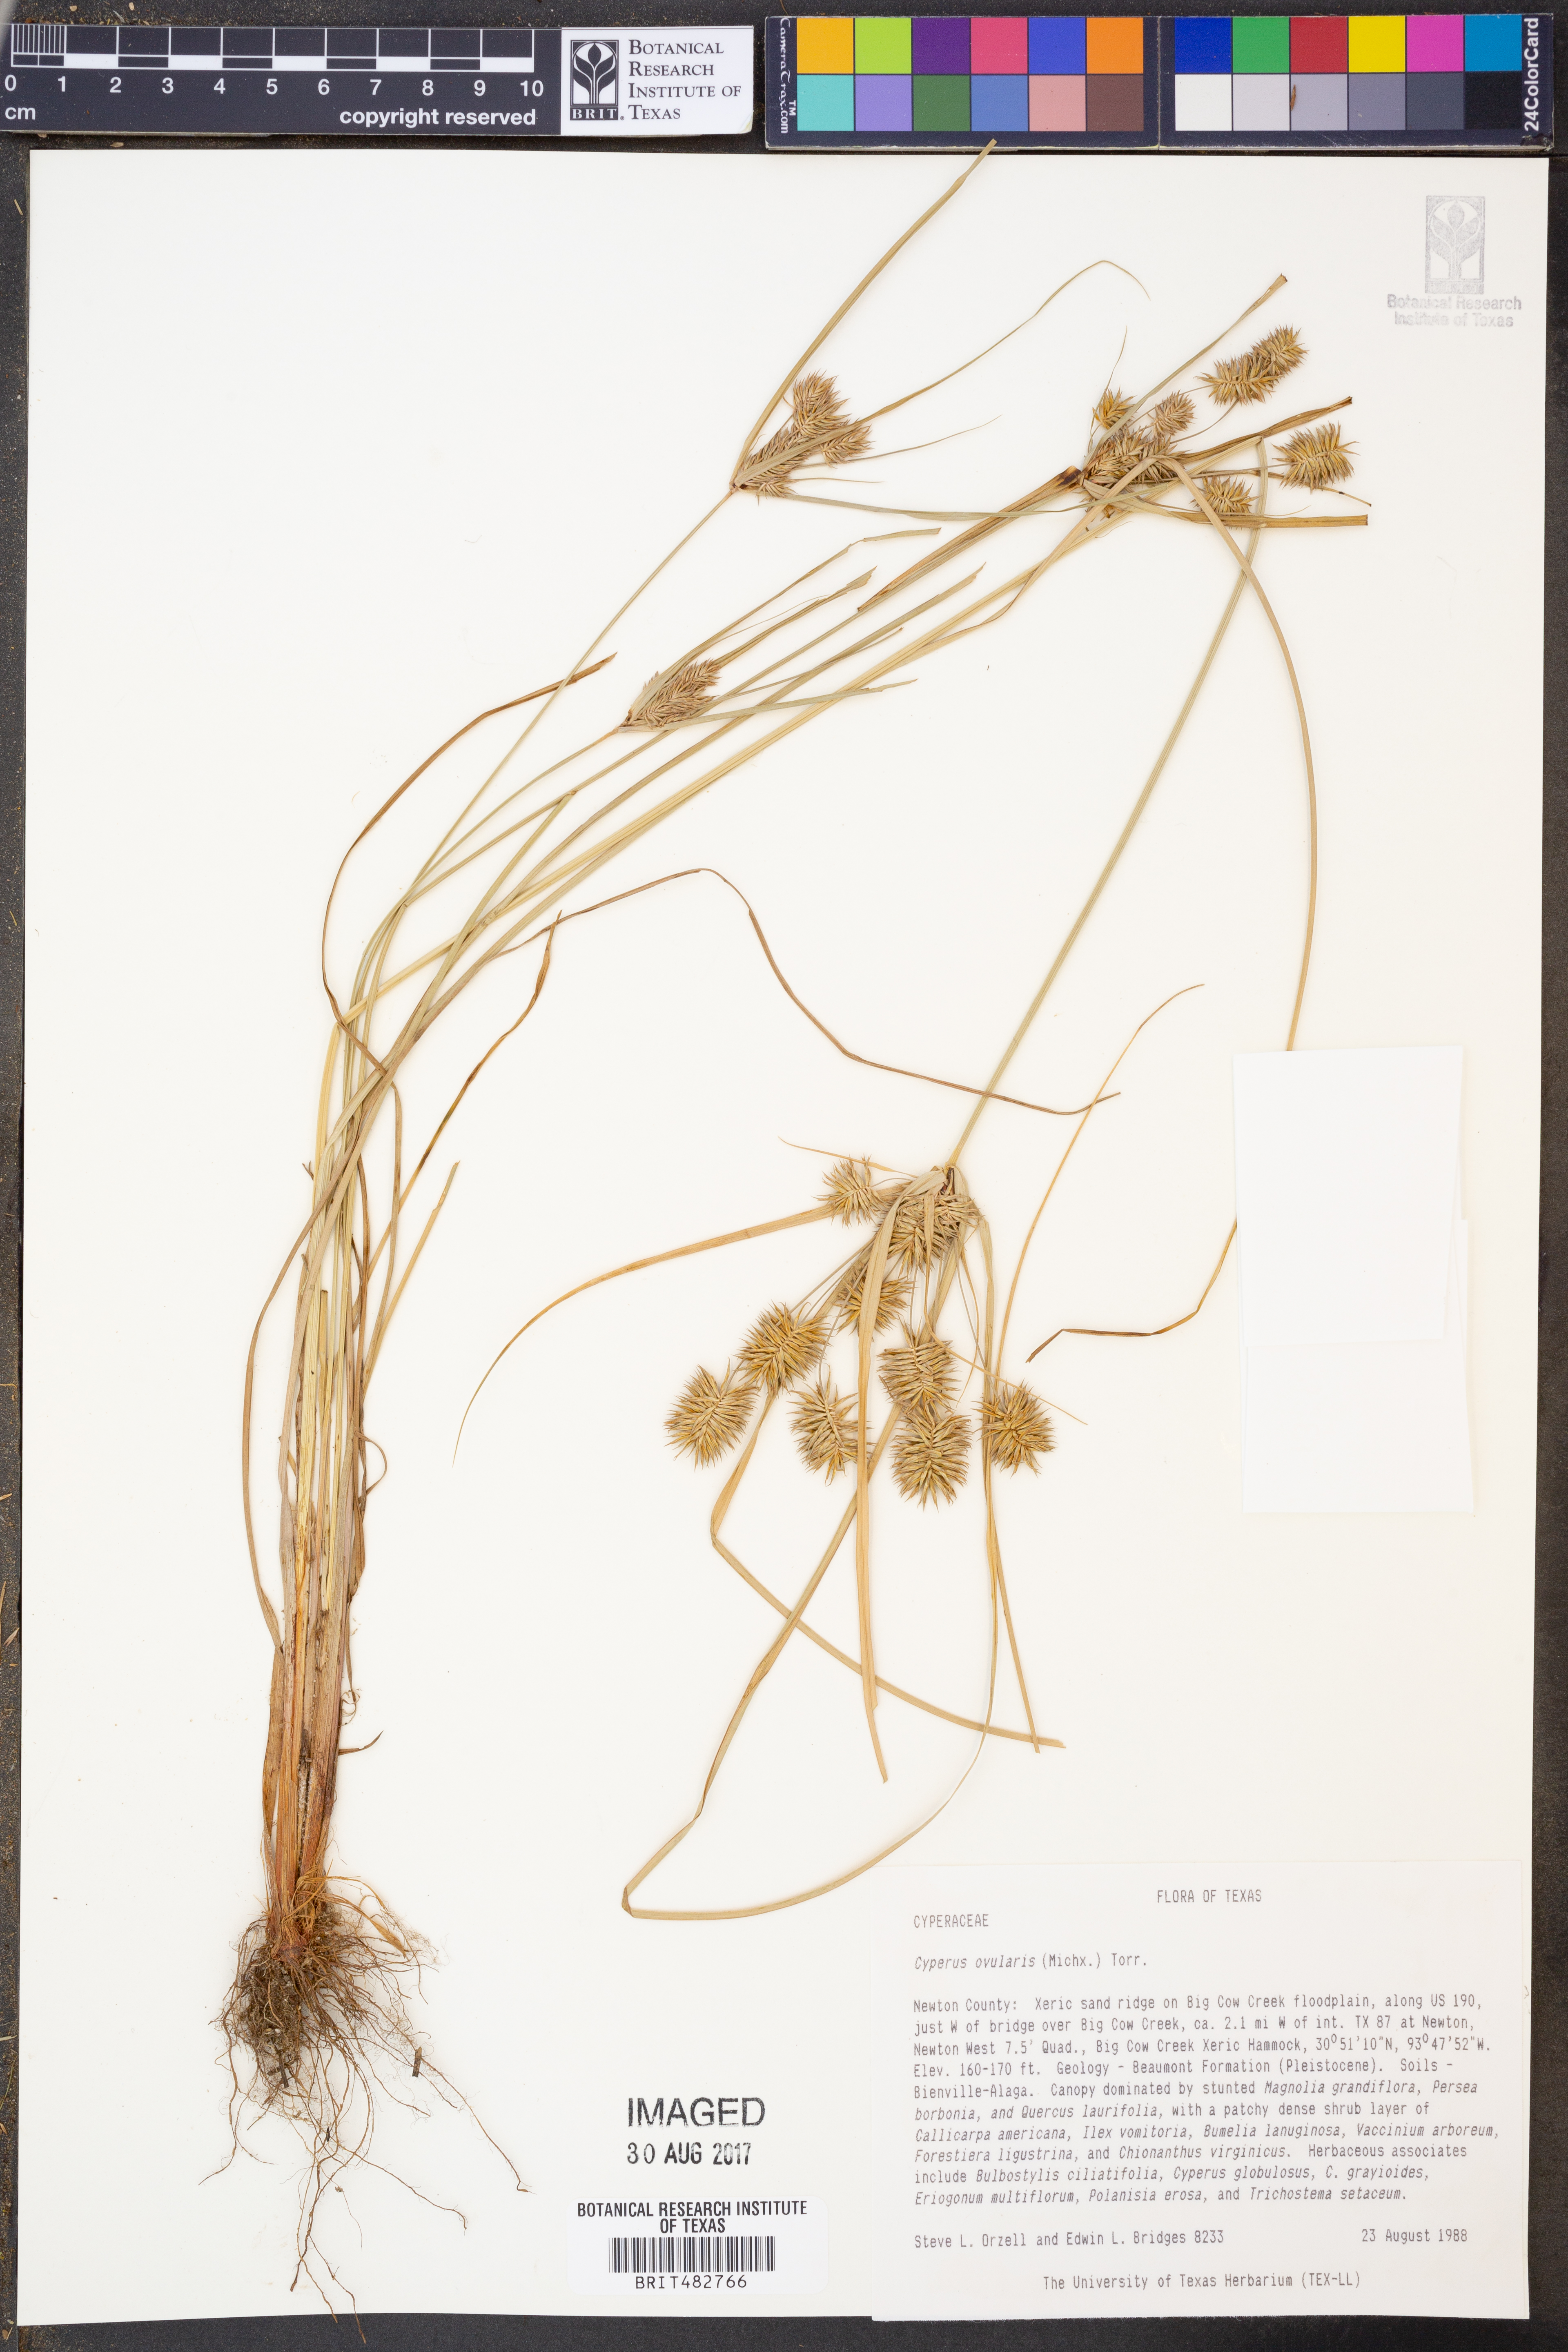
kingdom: Plantae
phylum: Tracheophyta
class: Liliopsida
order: Poales
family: Cyperaceae
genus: Cyperus
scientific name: Cyperus echinatus
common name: Teasel sedge
